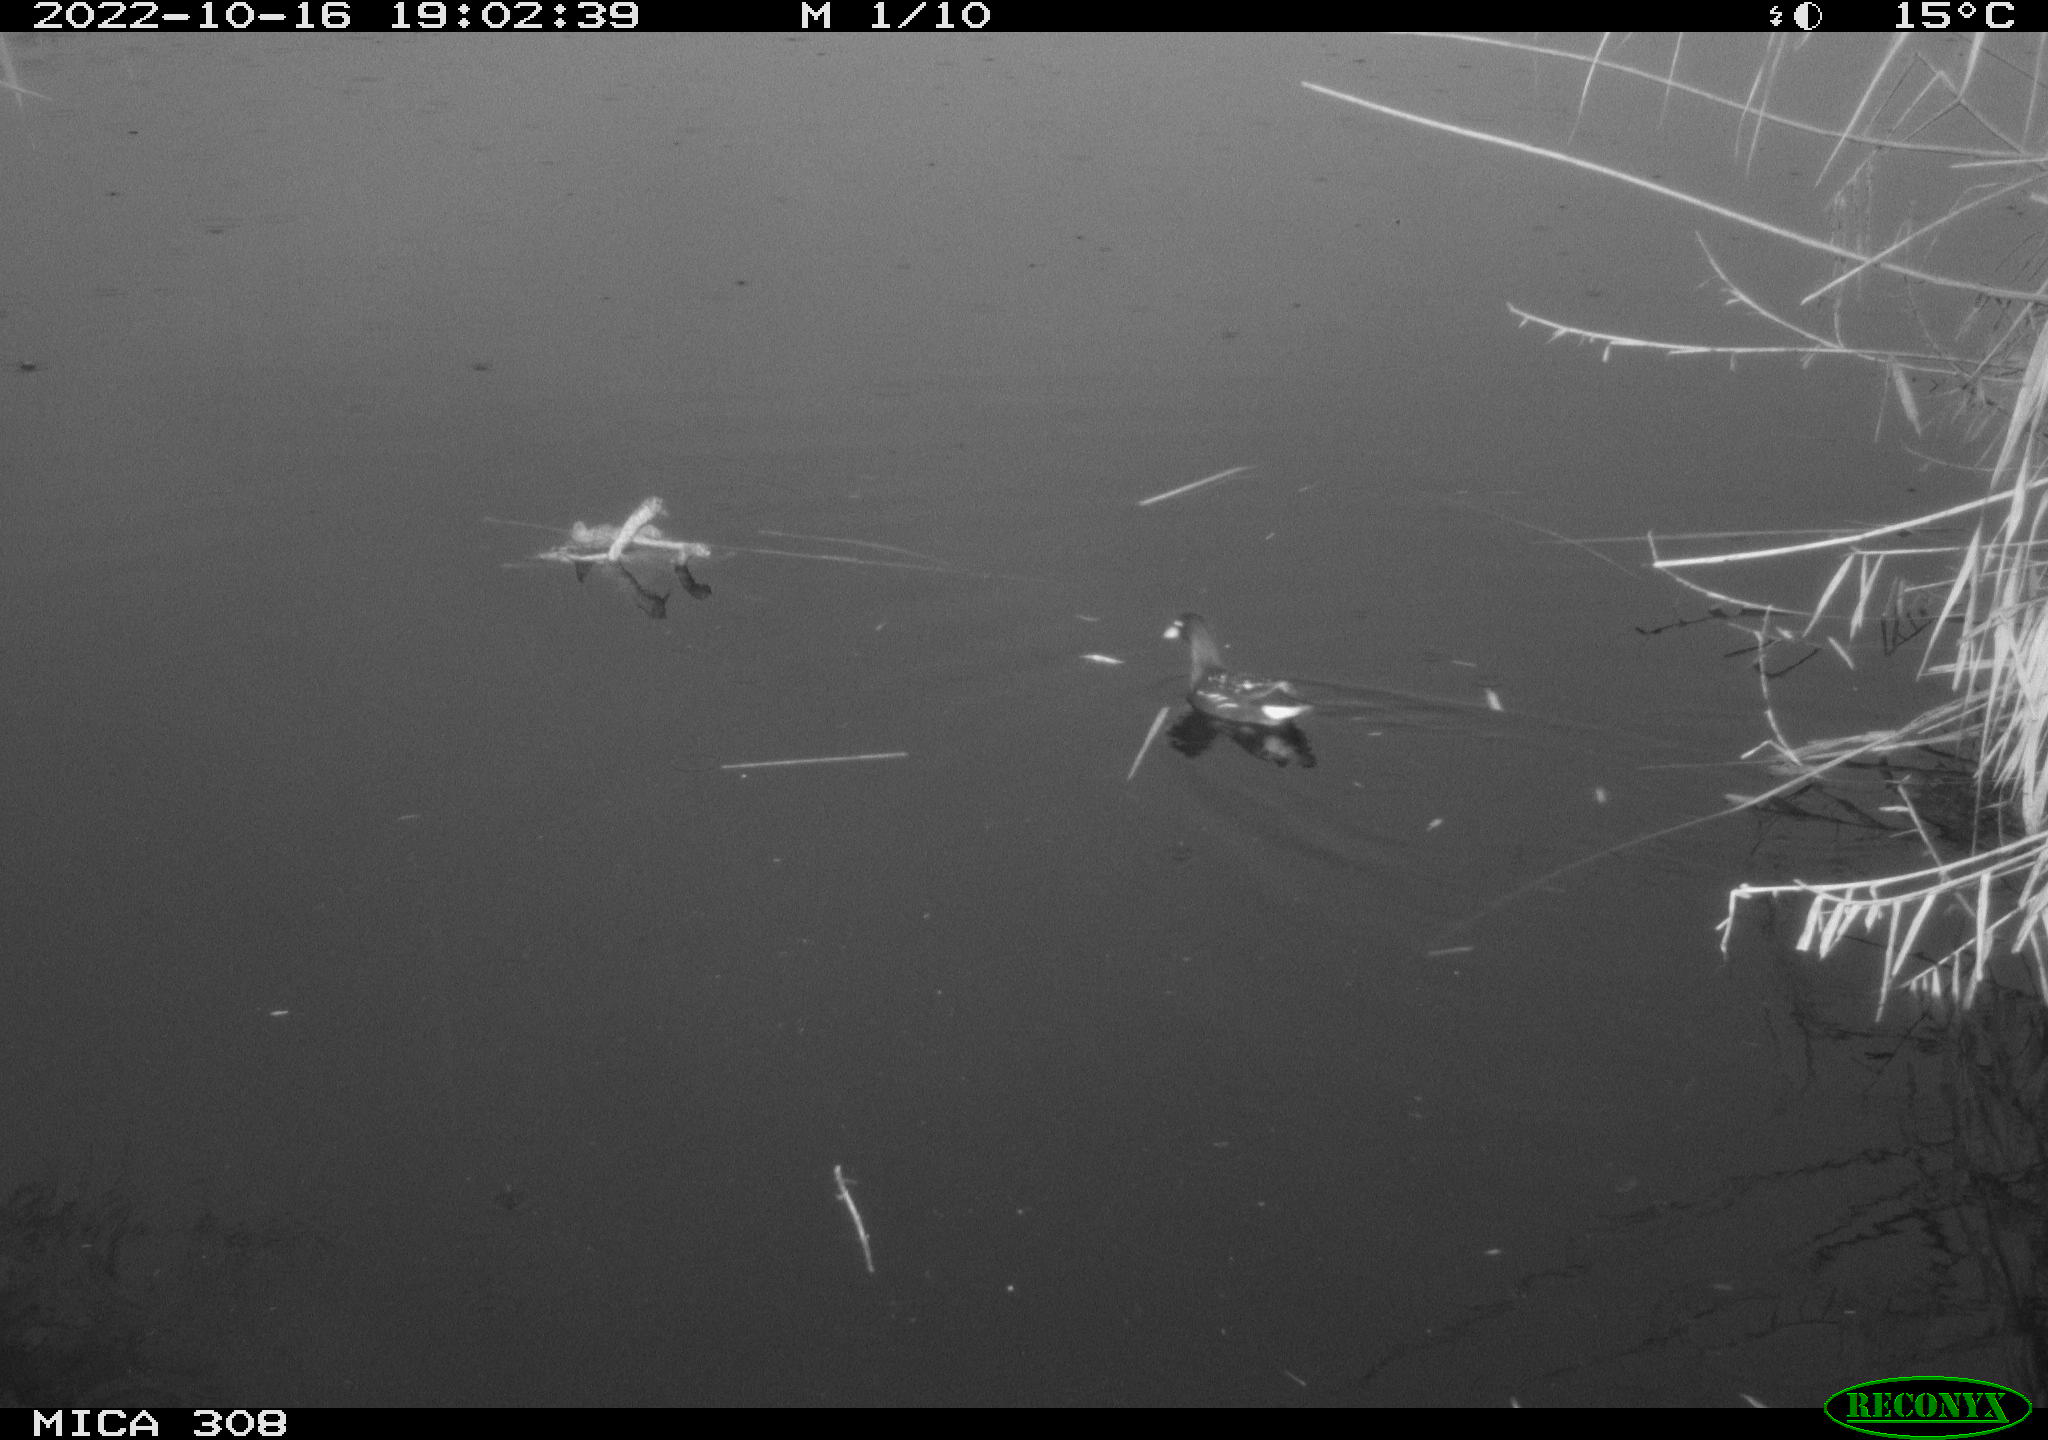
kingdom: Animalia
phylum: Chordata
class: Mammalia
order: Rodentia
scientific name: Rodentia
